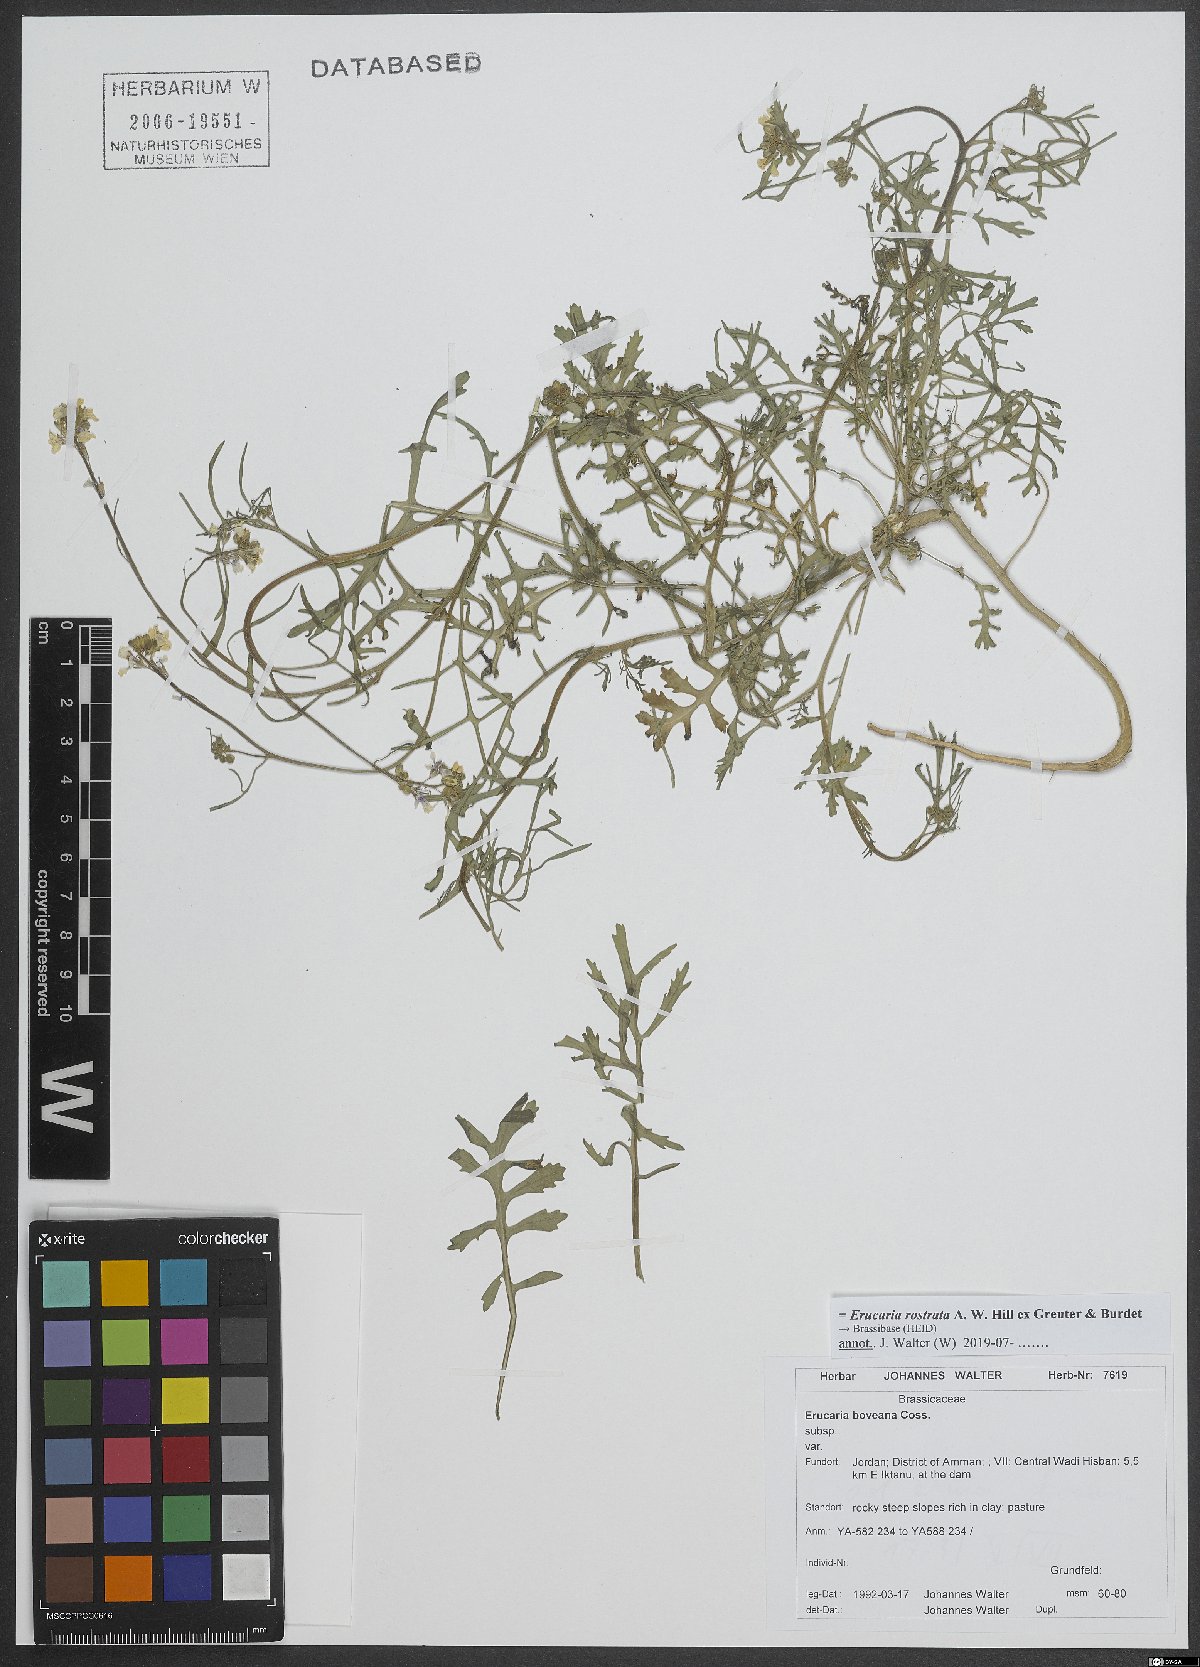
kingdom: Plantae
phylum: Tracheophyta
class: Magnoliopsida
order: Brassicales
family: Brassicaceae
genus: Erucaria
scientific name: Erucaria rostrata
